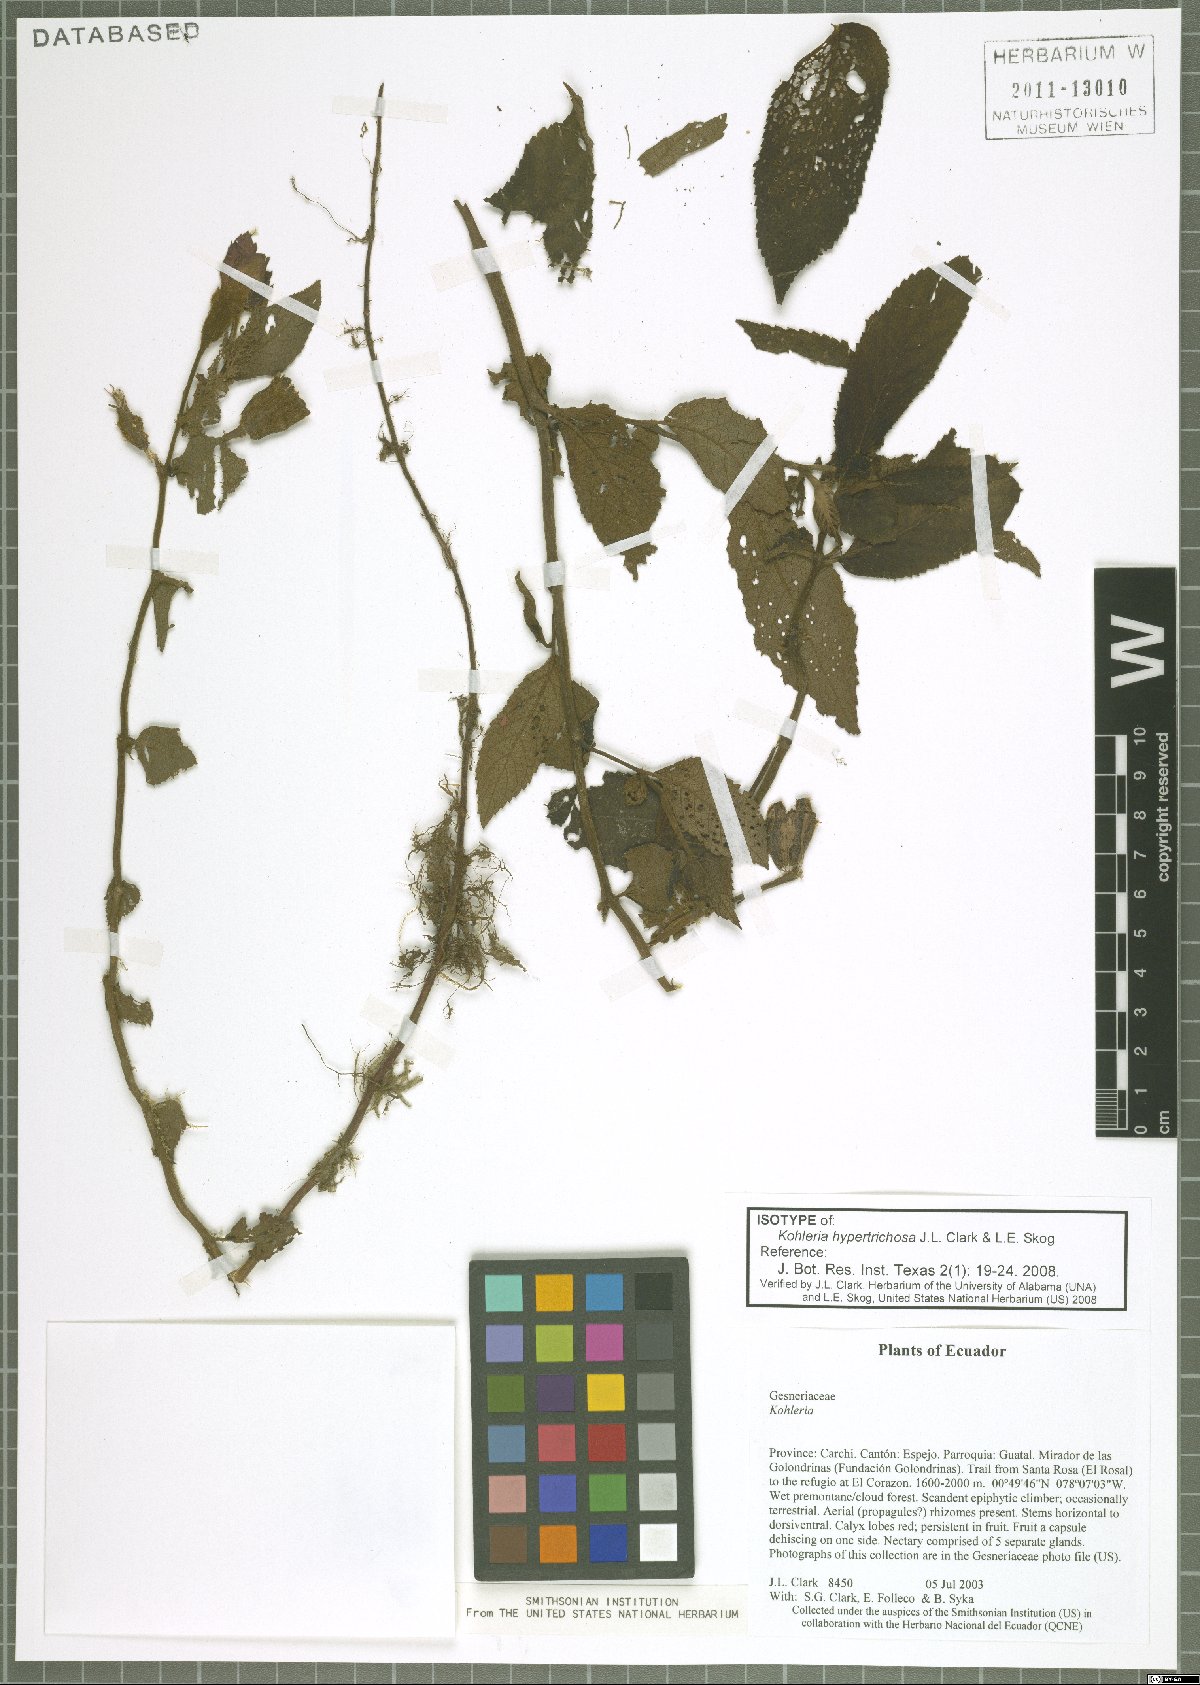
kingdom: Plantae
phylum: Tracheophyta
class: Magnoliopsida
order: Lamiales
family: Gesneriaceae
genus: Kohleria
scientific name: Kohleria hypertrichosa
